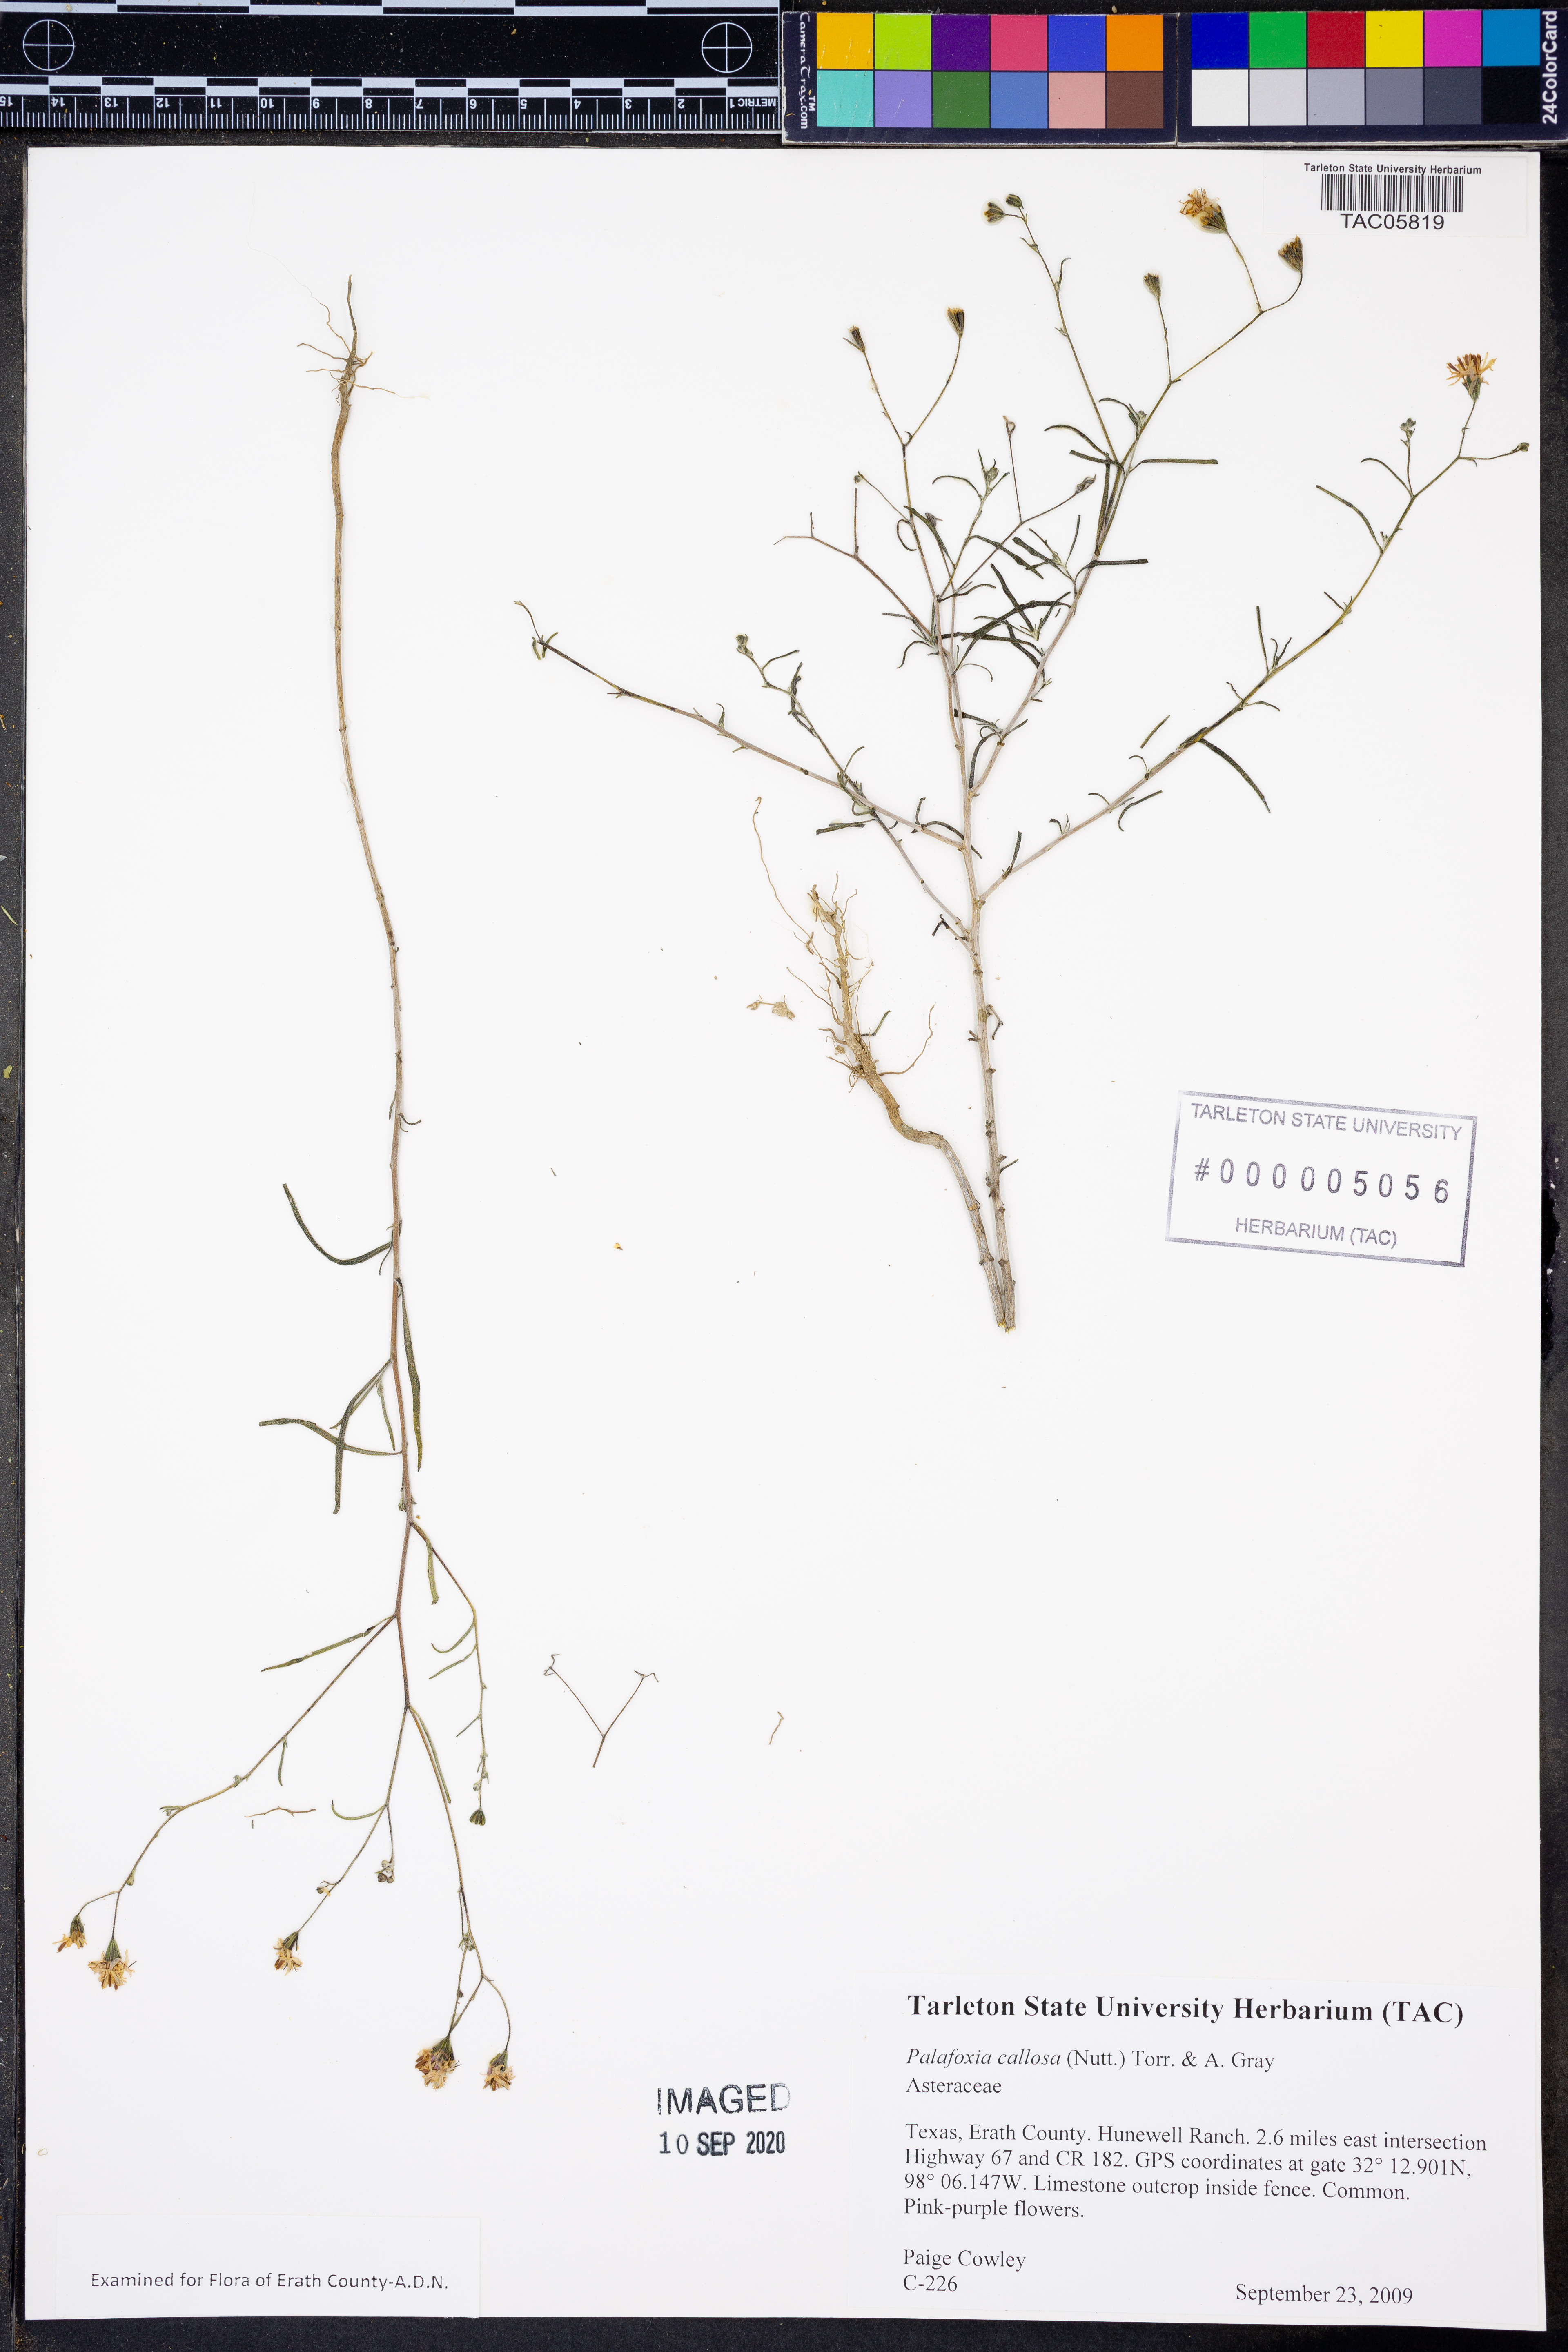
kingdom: Plantae
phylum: Tracheophyta
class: Magnoliopsida
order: Asterales
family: Asteraceae
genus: Palafoxia
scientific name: Palafoxia callosa
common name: Small palafox
